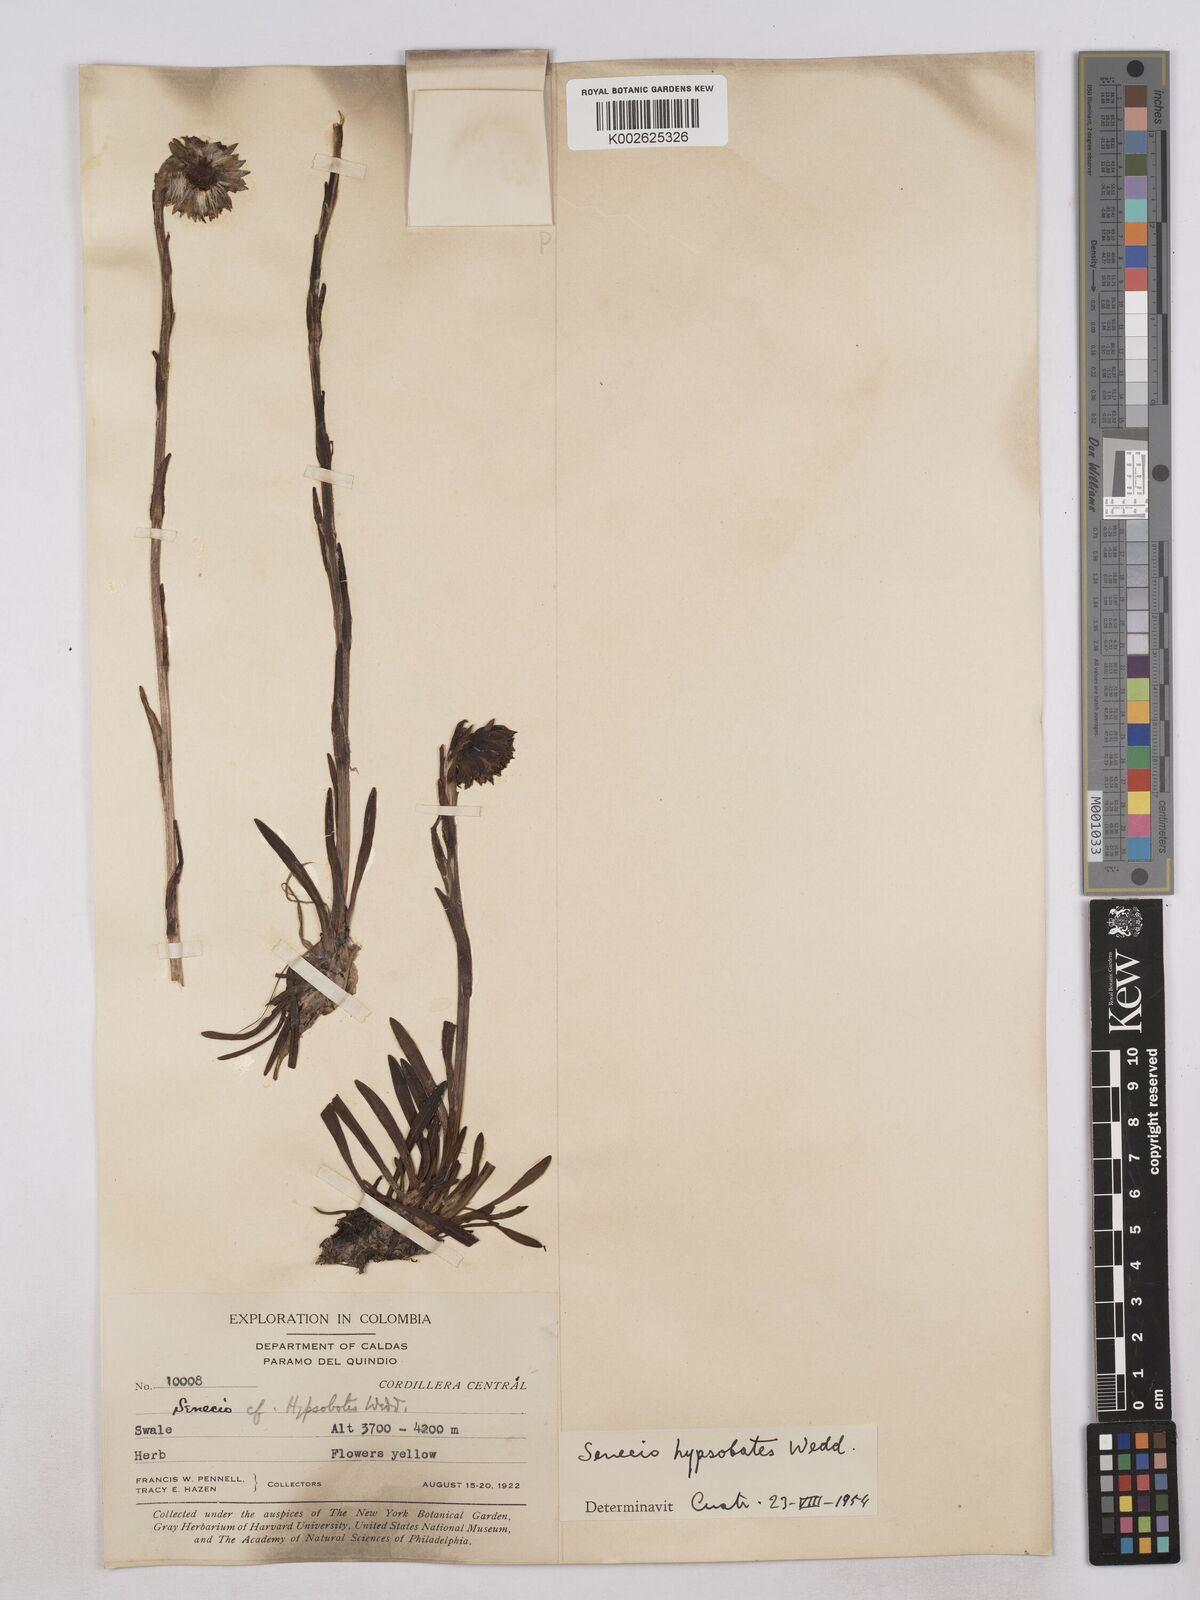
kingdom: Plantae
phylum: Tracheophyta
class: Magnoliopsida
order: Asterales
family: Asteraceae
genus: Senecio
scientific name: Senecio hypsobates
